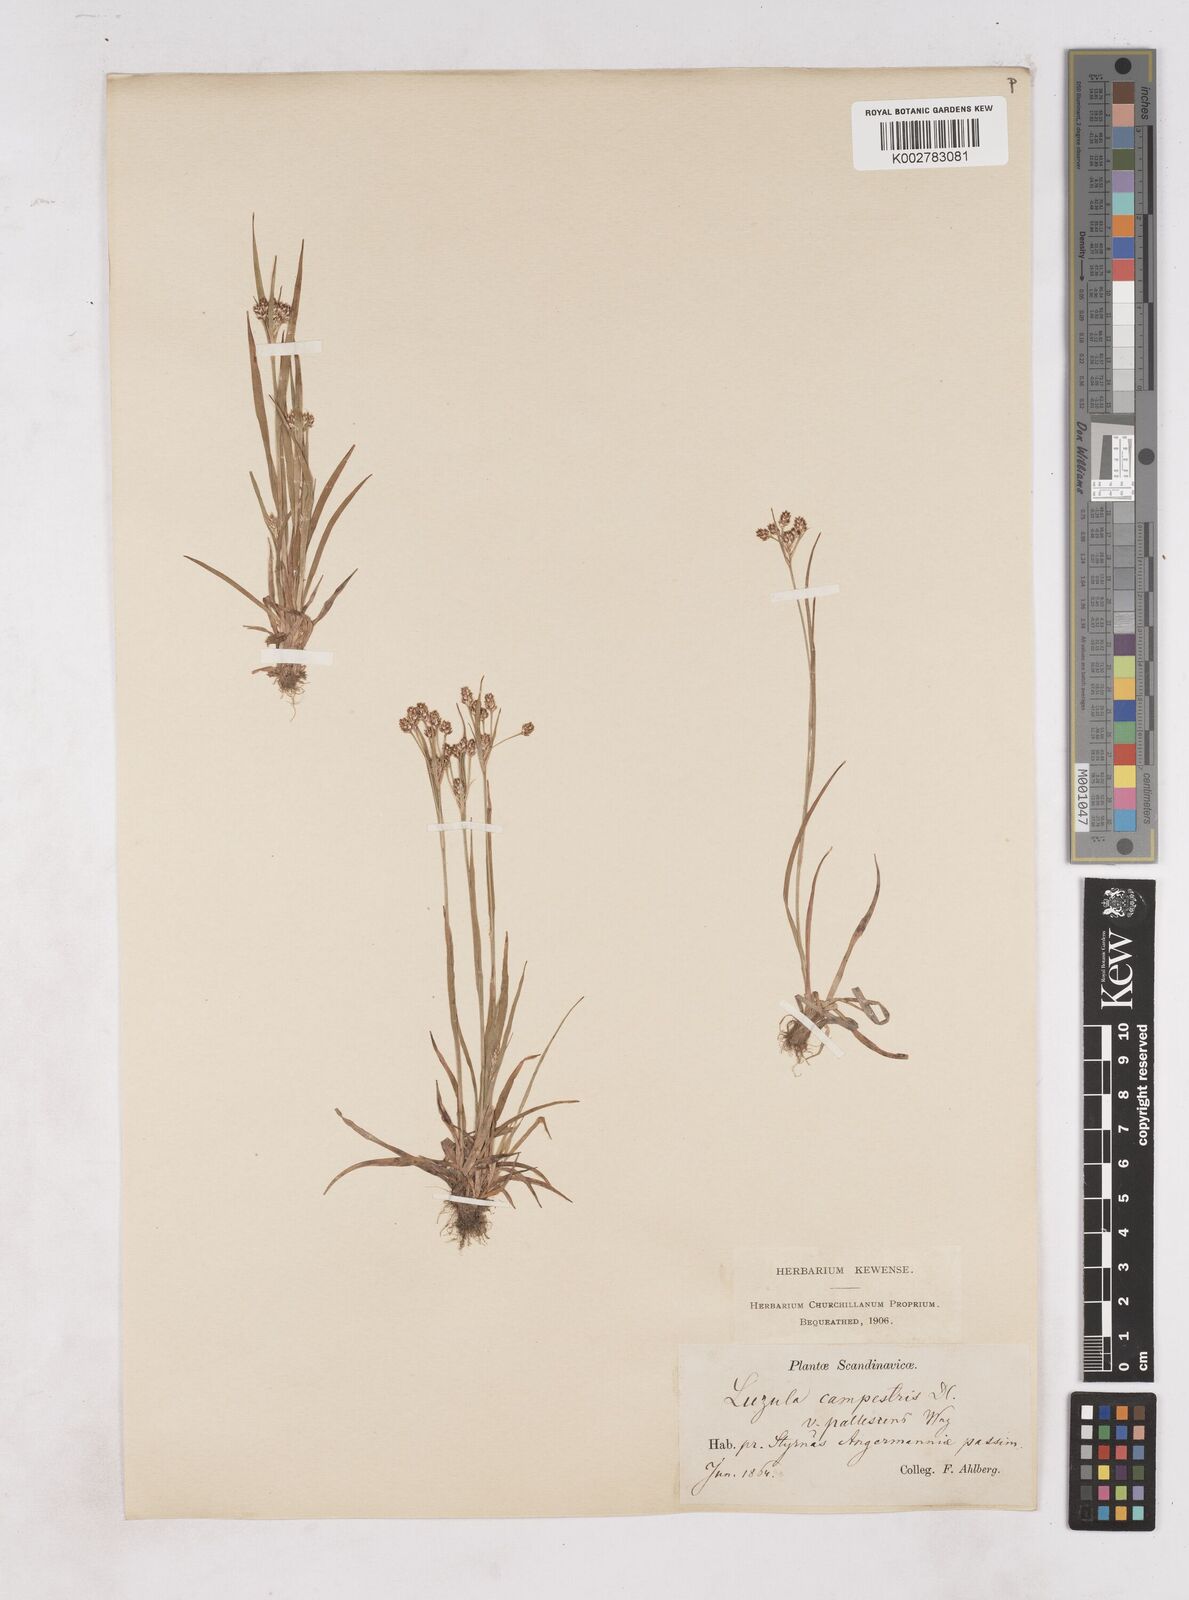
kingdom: Plantae
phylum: Tracheophyta
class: Liliopsida
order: Poales
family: Juncaceae
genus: Luzula
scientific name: Luzula pallescens
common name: Fen wood-rush
